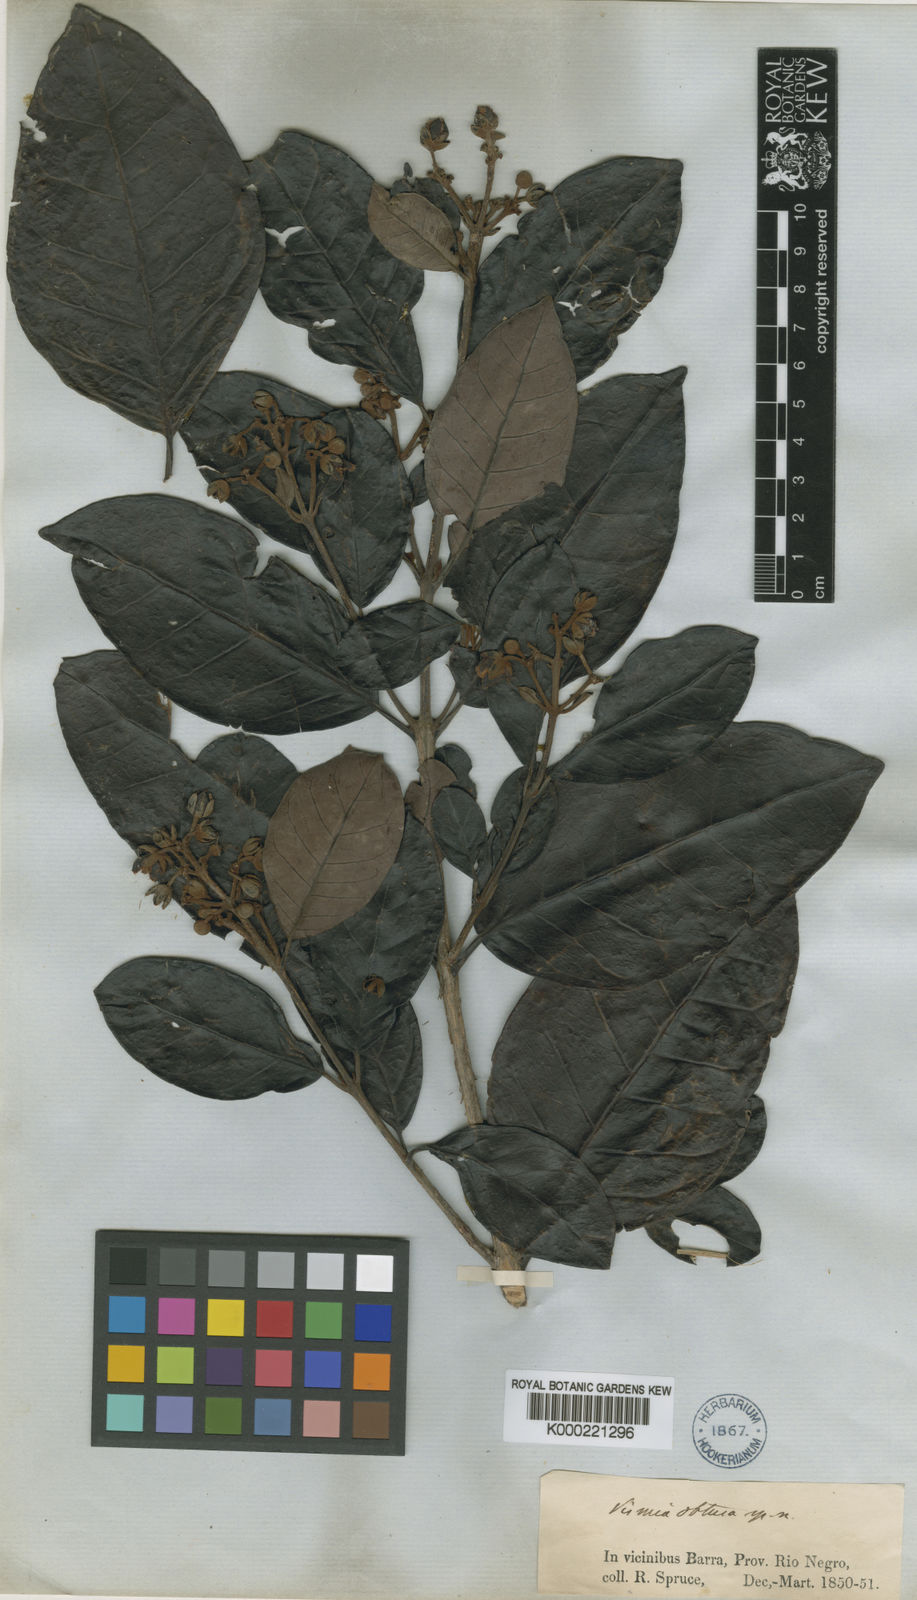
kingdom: Plantae
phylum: Tracheophyta
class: Magnoliopsida
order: Malpighiales
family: Hypericaceae
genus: Vismia
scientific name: Vismia obtusa
